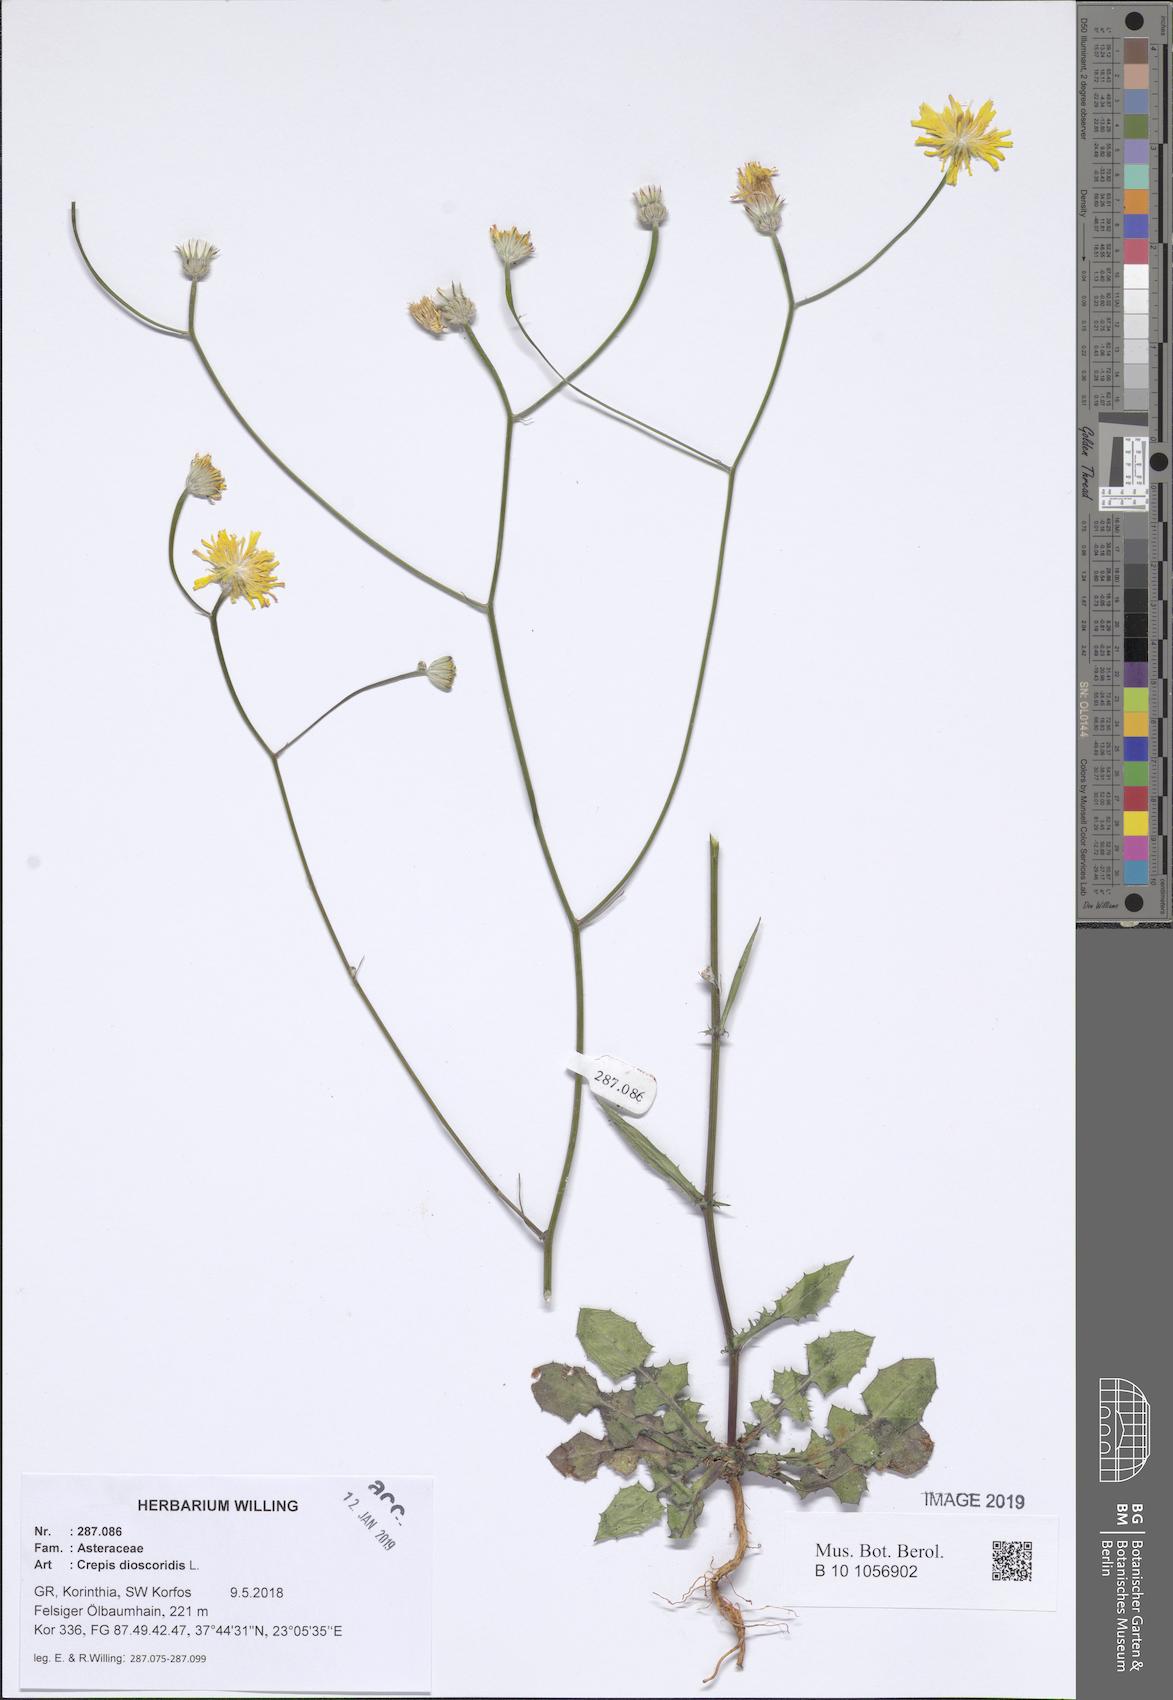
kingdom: Plantae
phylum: Tracheophyta
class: Magnoliopsida
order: Asterales
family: Asteraceae
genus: Crepis
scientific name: Crepis dioscoridis
